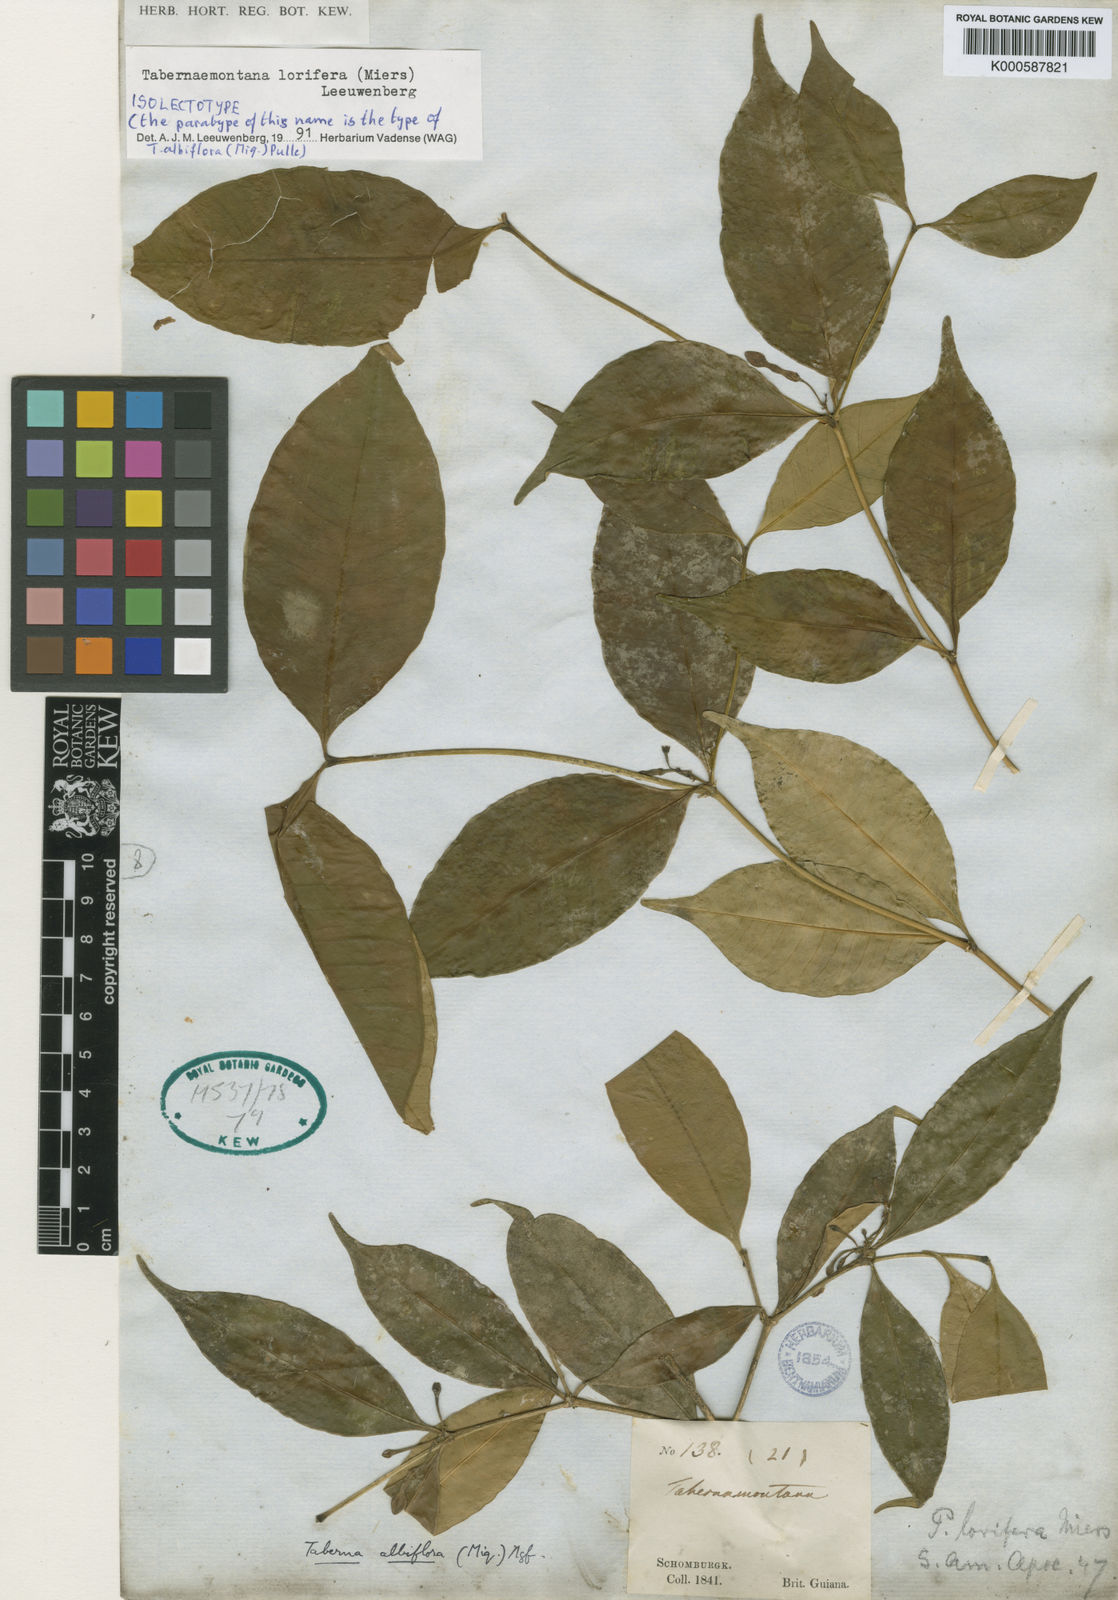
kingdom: Plantae
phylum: Tracheophyta
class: Magnoliopsida
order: Gentianales
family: Apocynaceae
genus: Tabernaemontana
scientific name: Tabernaemontana lorifera
